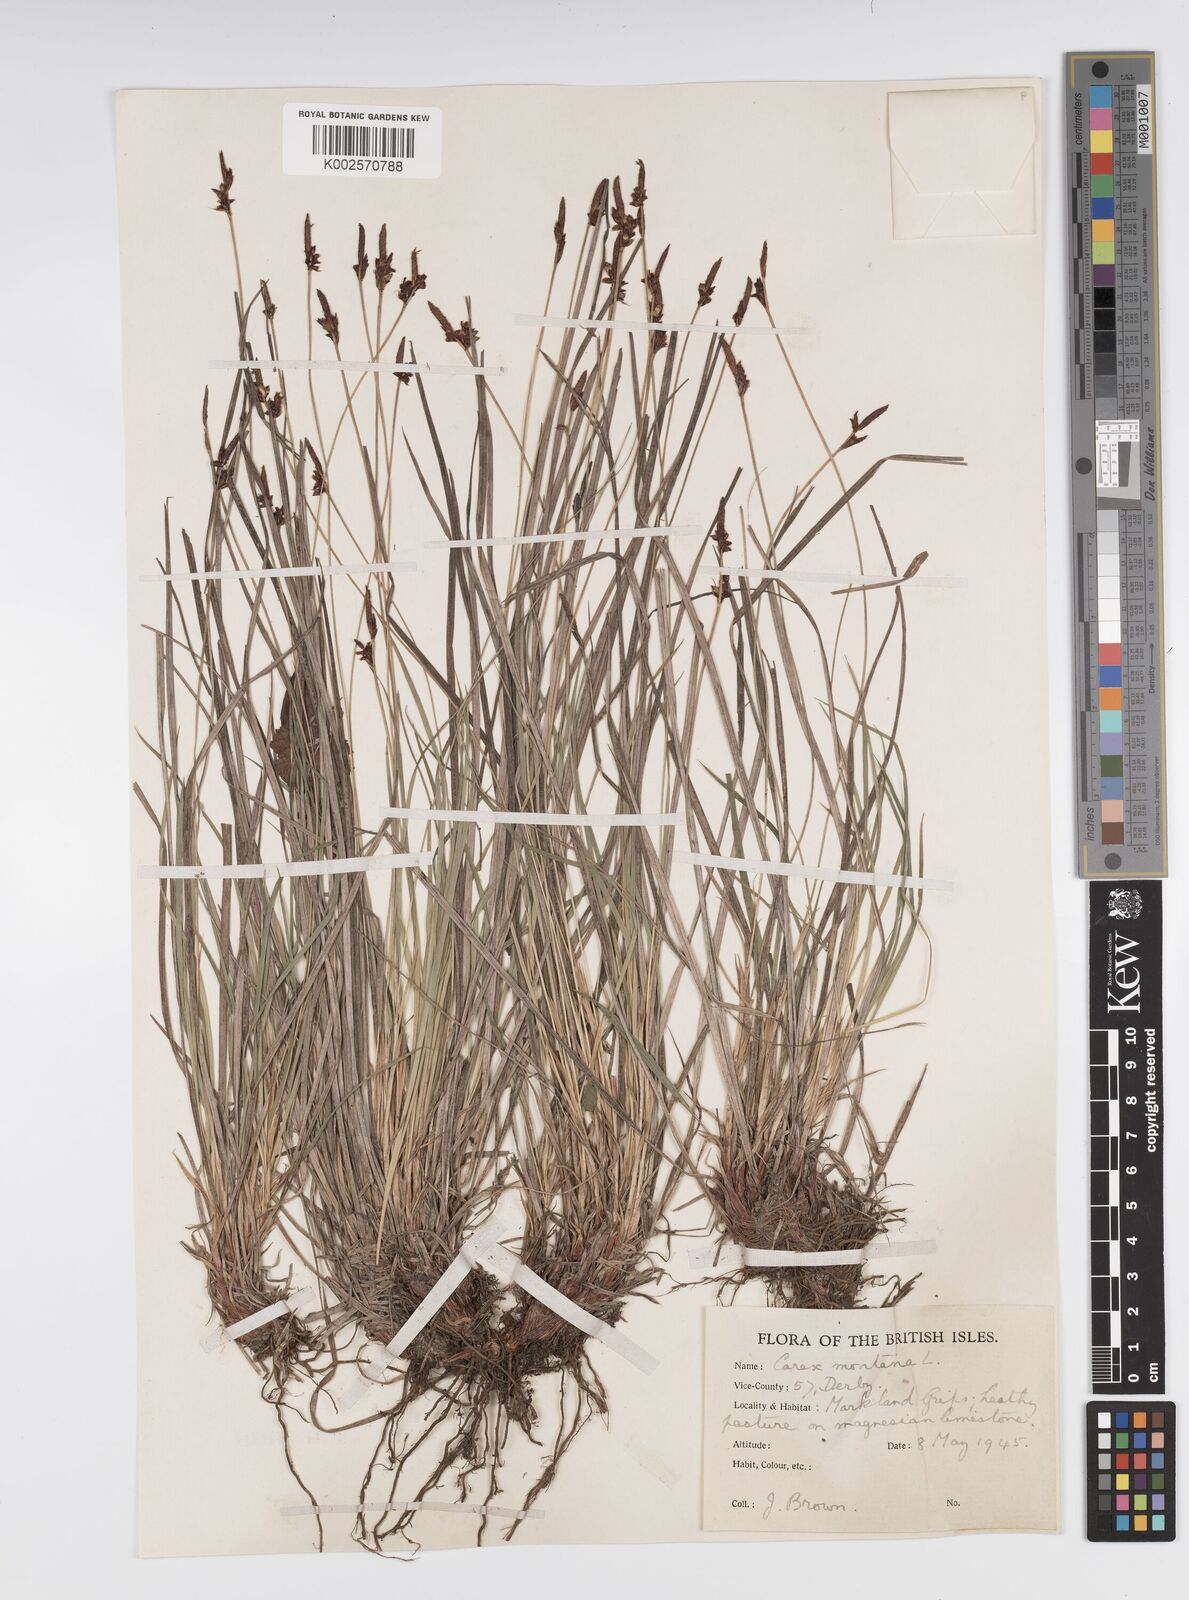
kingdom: Plantae
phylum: Tracheophyta
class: Liliopsida
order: Poales
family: Cyperaceae
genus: Carex
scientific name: Carex montana
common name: Soft-leaved sedge
